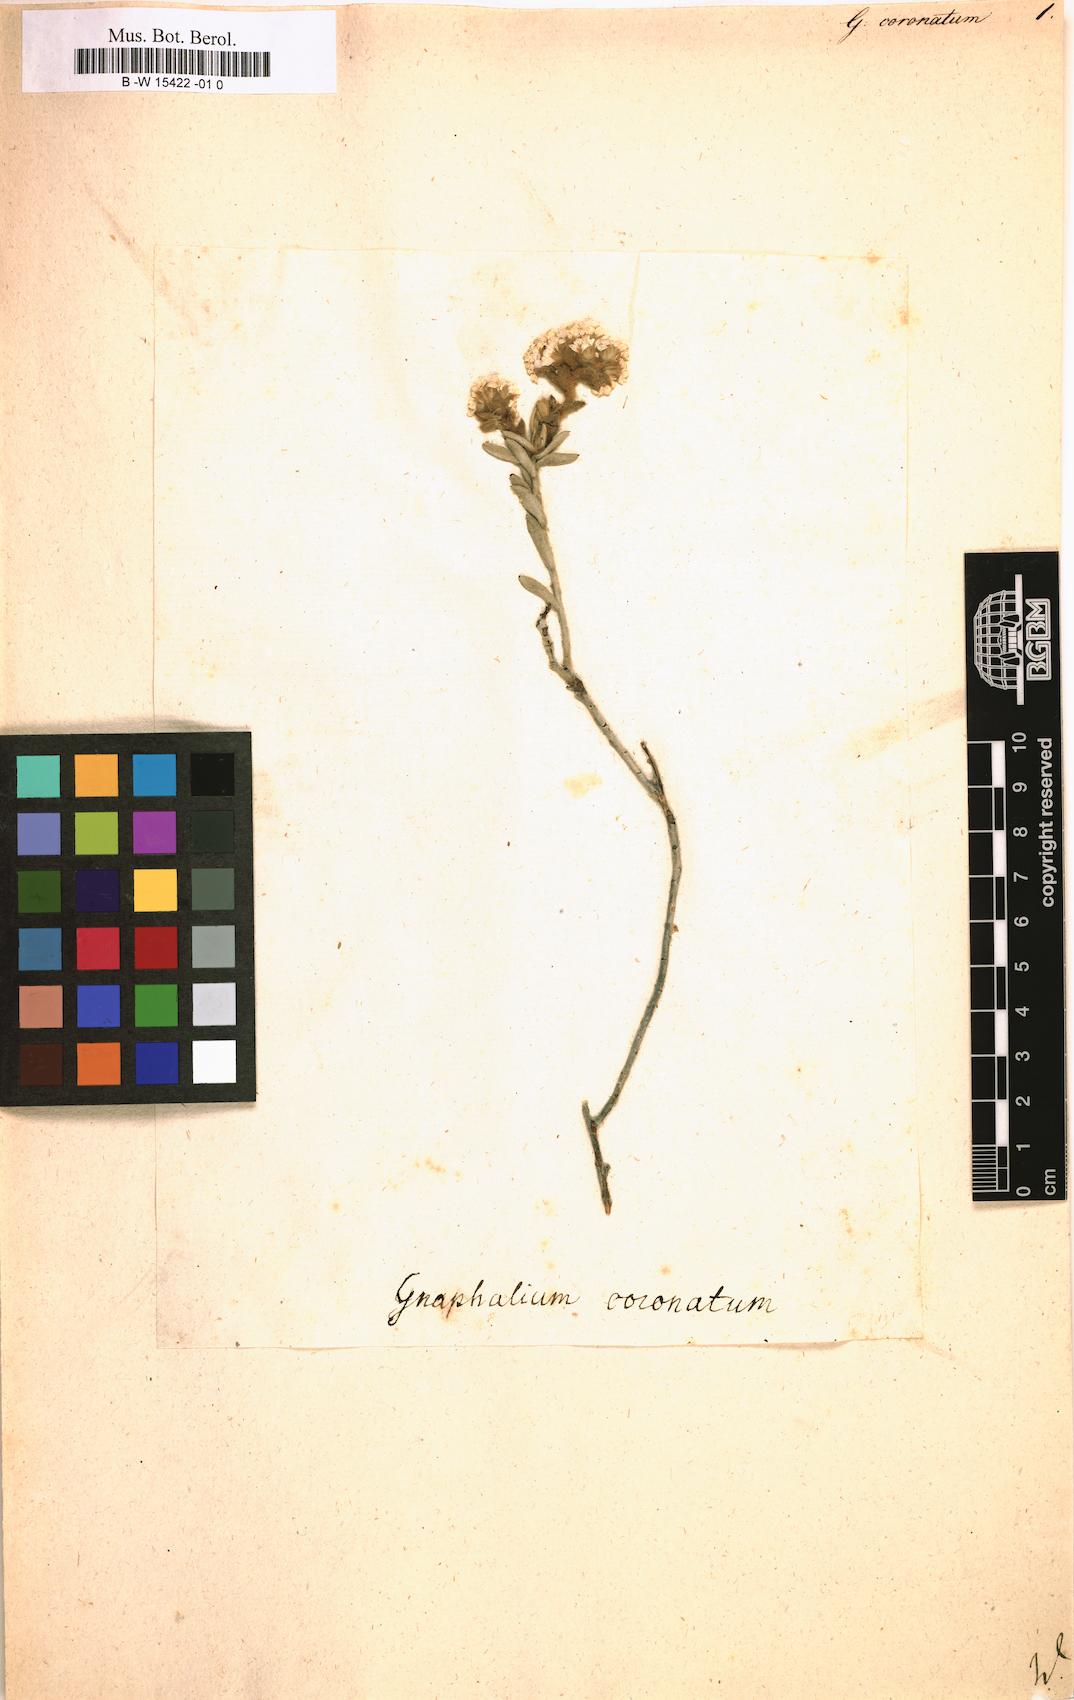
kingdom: Plantae
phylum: Tracheophyta
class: Magnoliopsida
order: Asterales
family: Asteraceae
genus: Petalacte
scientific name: Petalacte coronata
